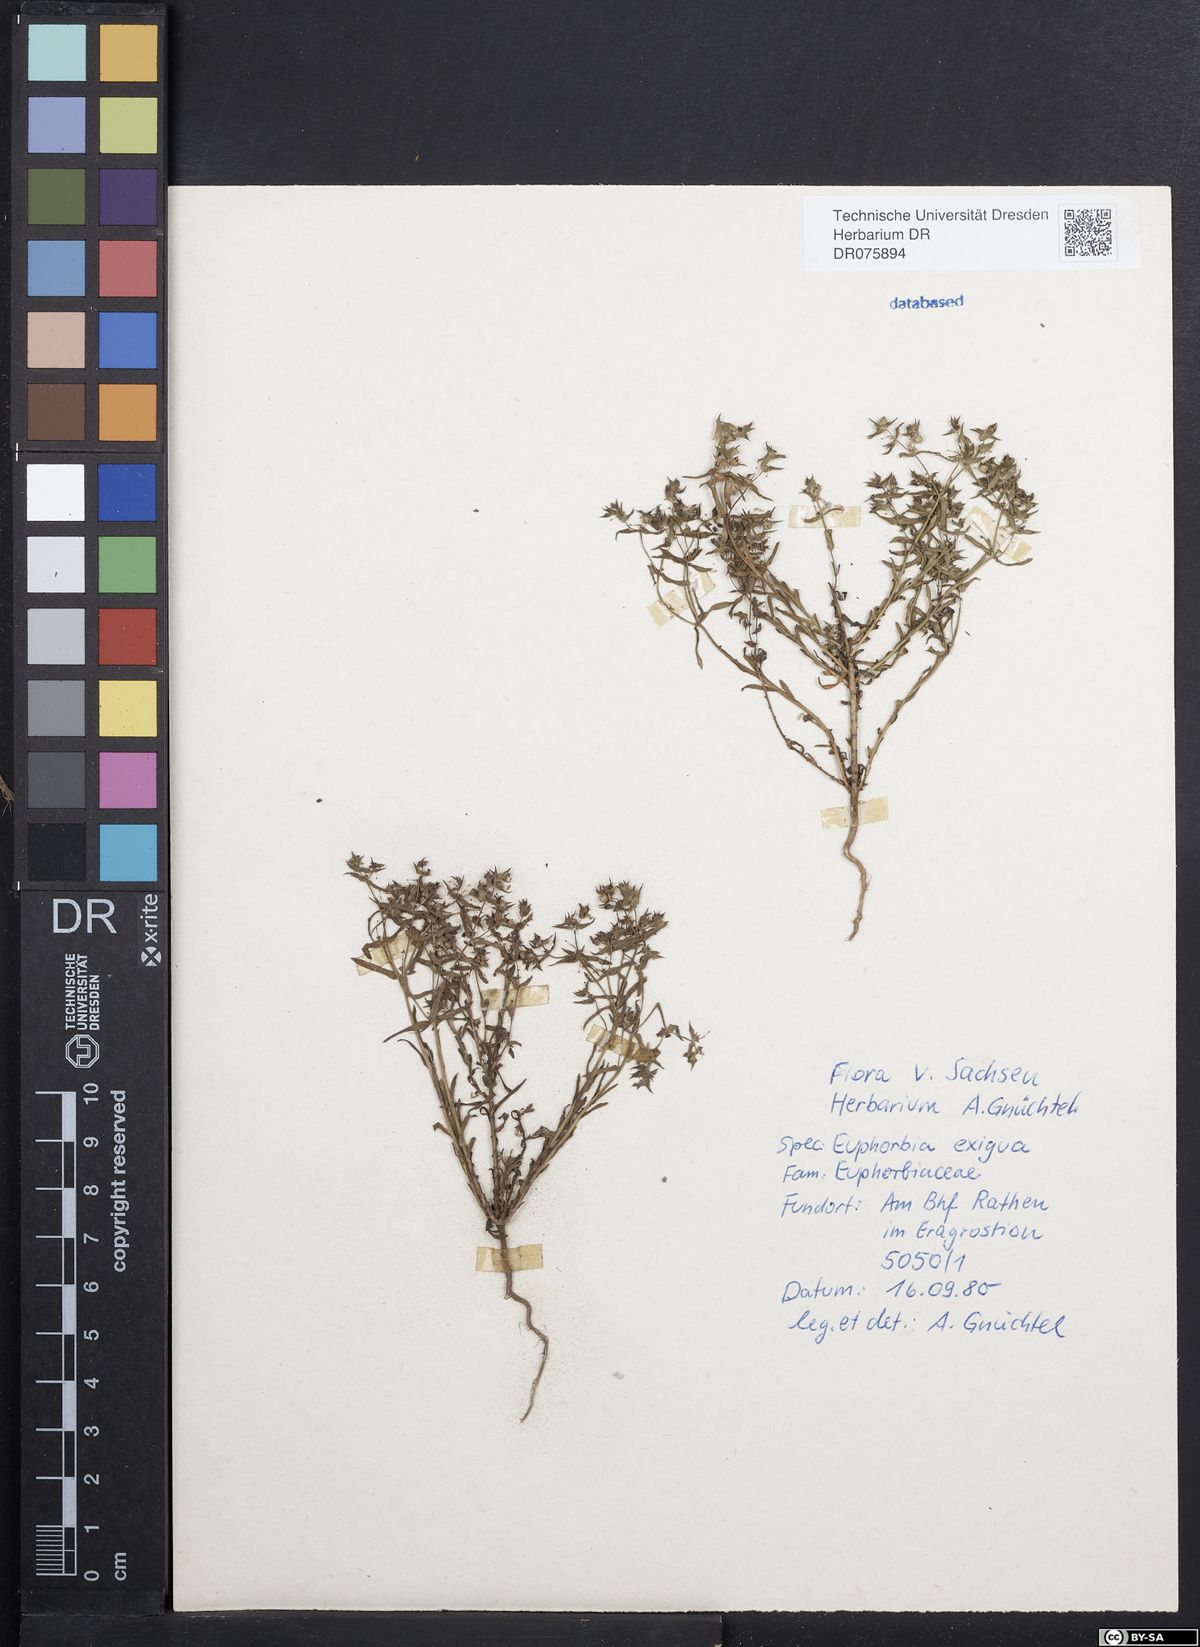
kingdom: Plantae
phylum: Tracheophyta
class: Magnoliopsida
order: Malpighiales
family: Euphorbiaceae
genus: Euphorbia
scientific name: Euphorbia exigua
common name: Dwarf spurge
